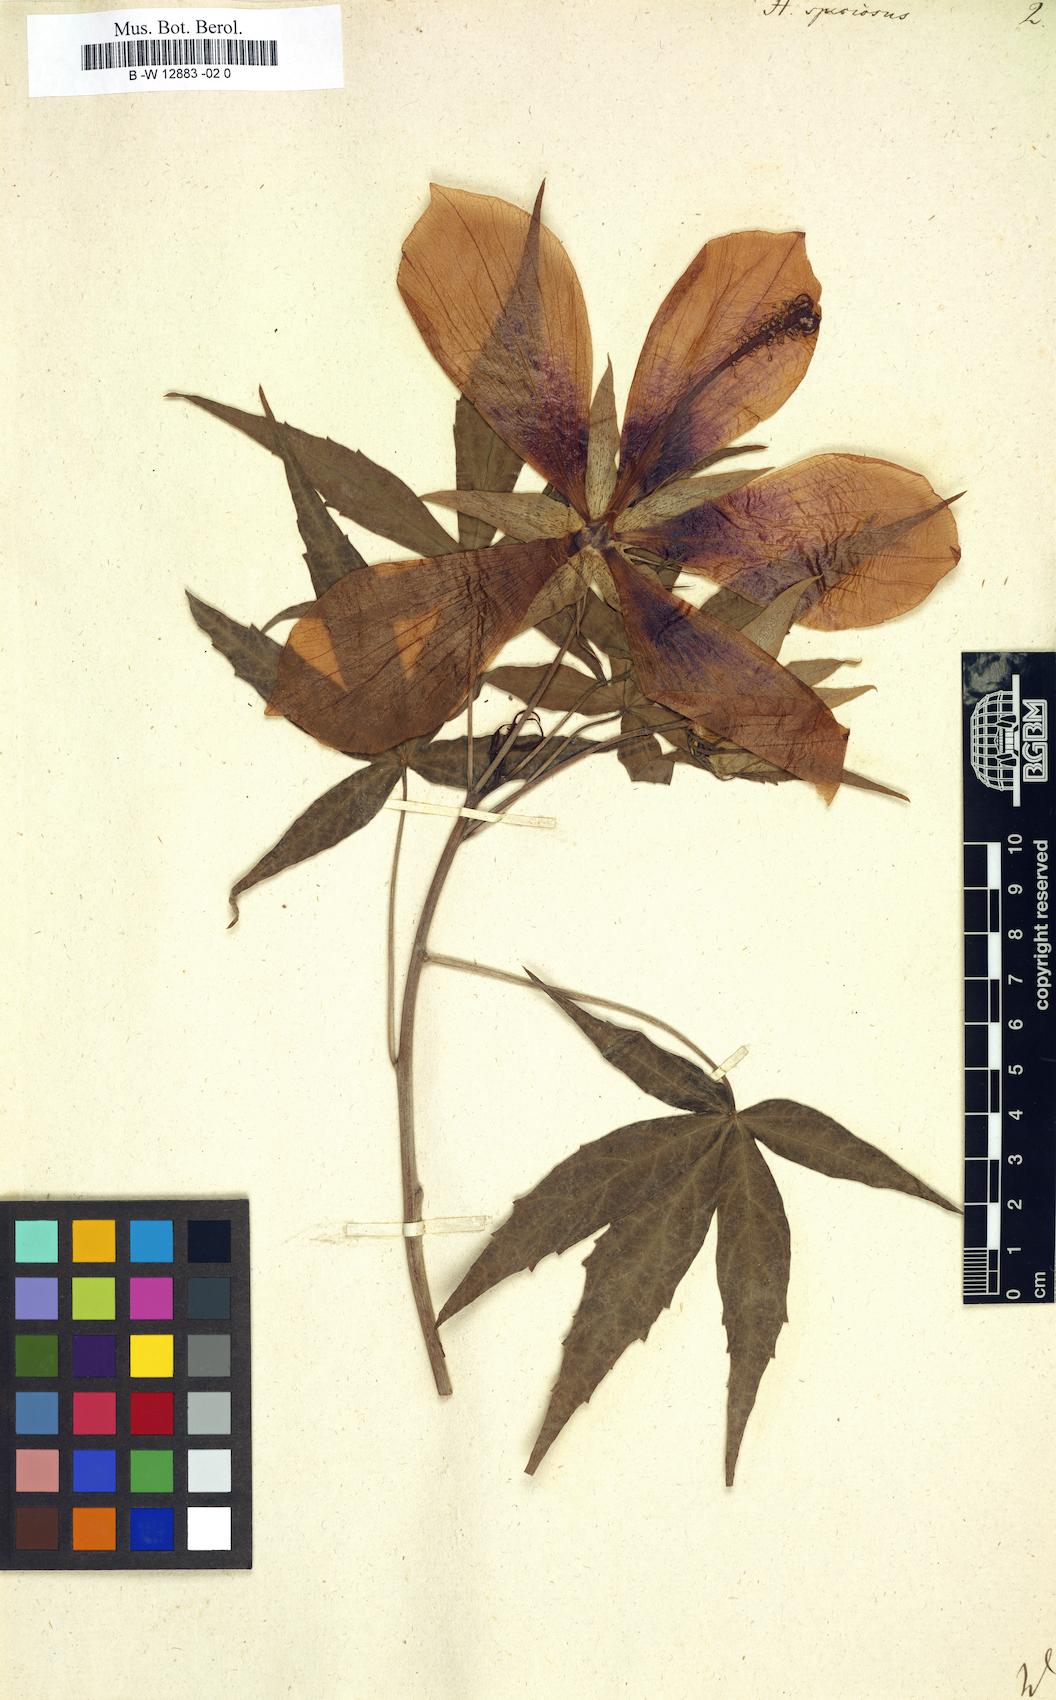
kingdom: Plantae
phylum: Tracheophyta
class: Magnoliopsida
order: Malvales
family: Malvaceae
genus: Malvaviscus
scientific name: Malvaviscus arboreus
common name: Wax mallow
